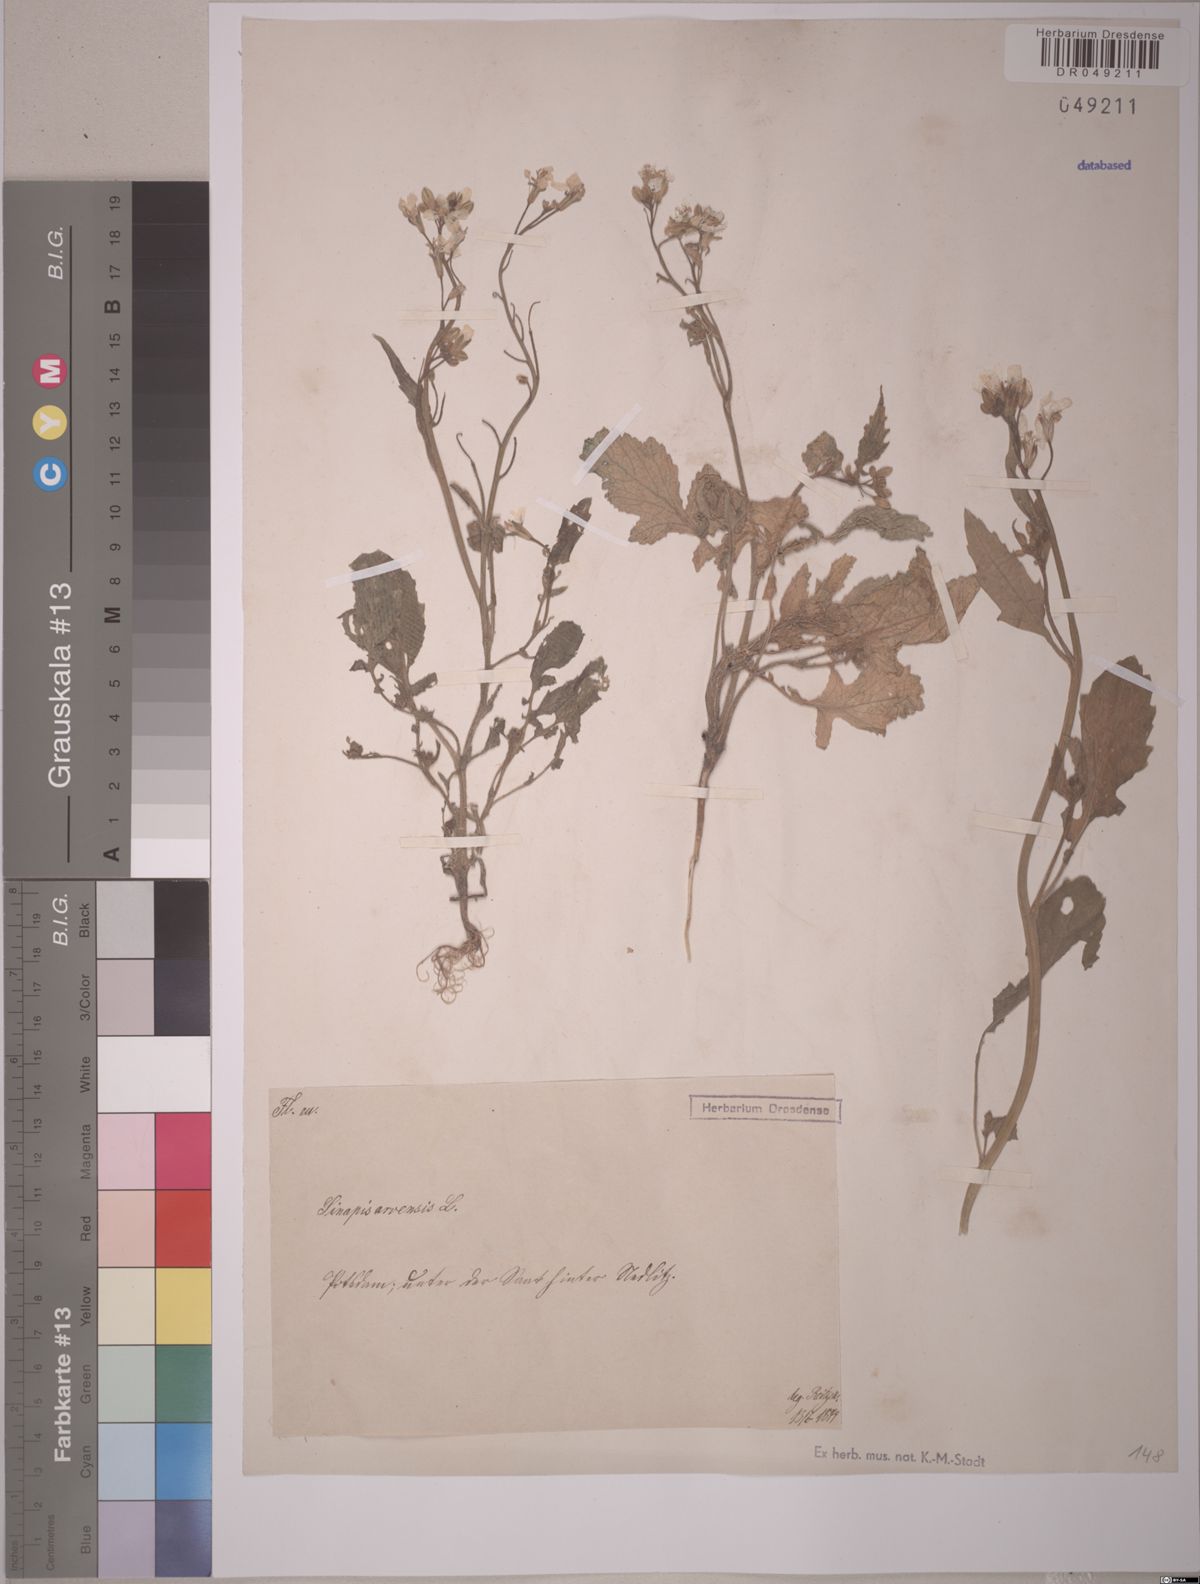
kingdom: Plantae
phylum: Tracheophyta
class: Magnoliopsida
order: Brassicales
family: Brassicaceae
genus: Sinapis
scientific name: Sinapis arvensis
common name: Charlock
